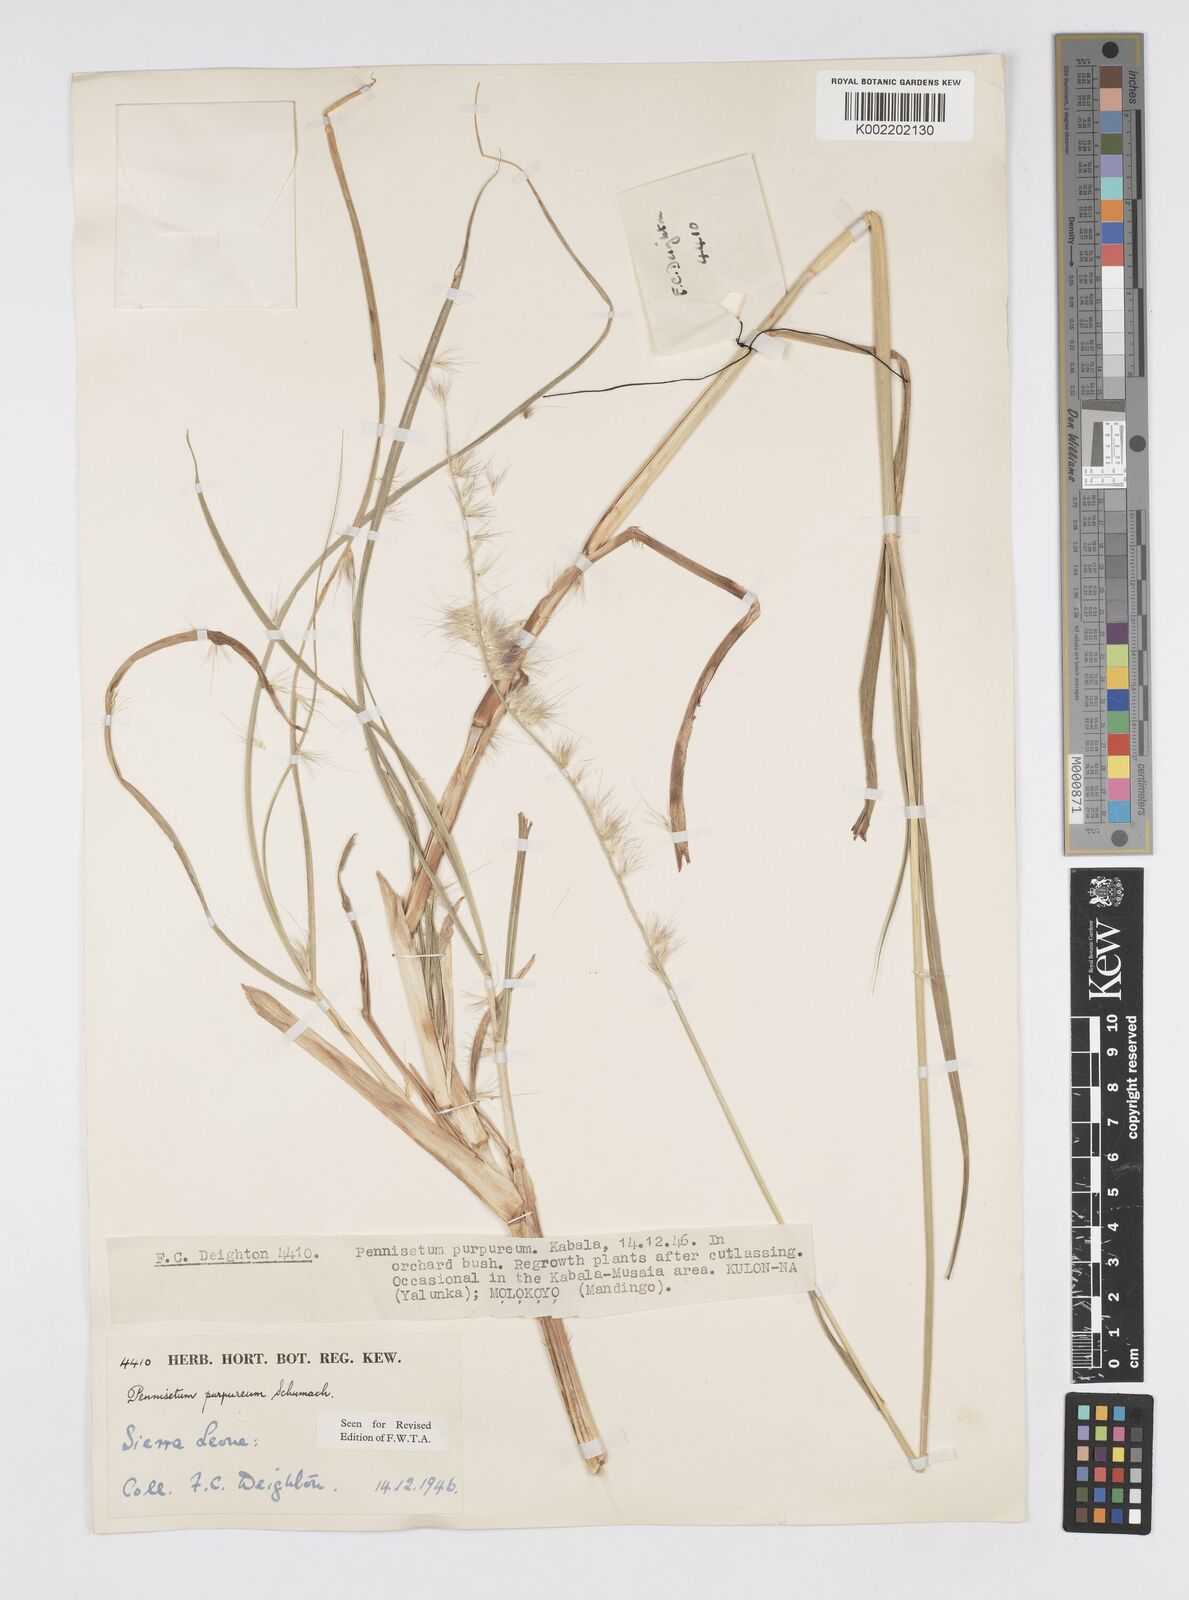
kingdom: Plantae
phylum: Tracheophyta
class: Liliopsida
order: Poales
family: Poaceae
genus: Cenchrus
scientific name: Cenchrus purpureus
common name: Elephant grass
